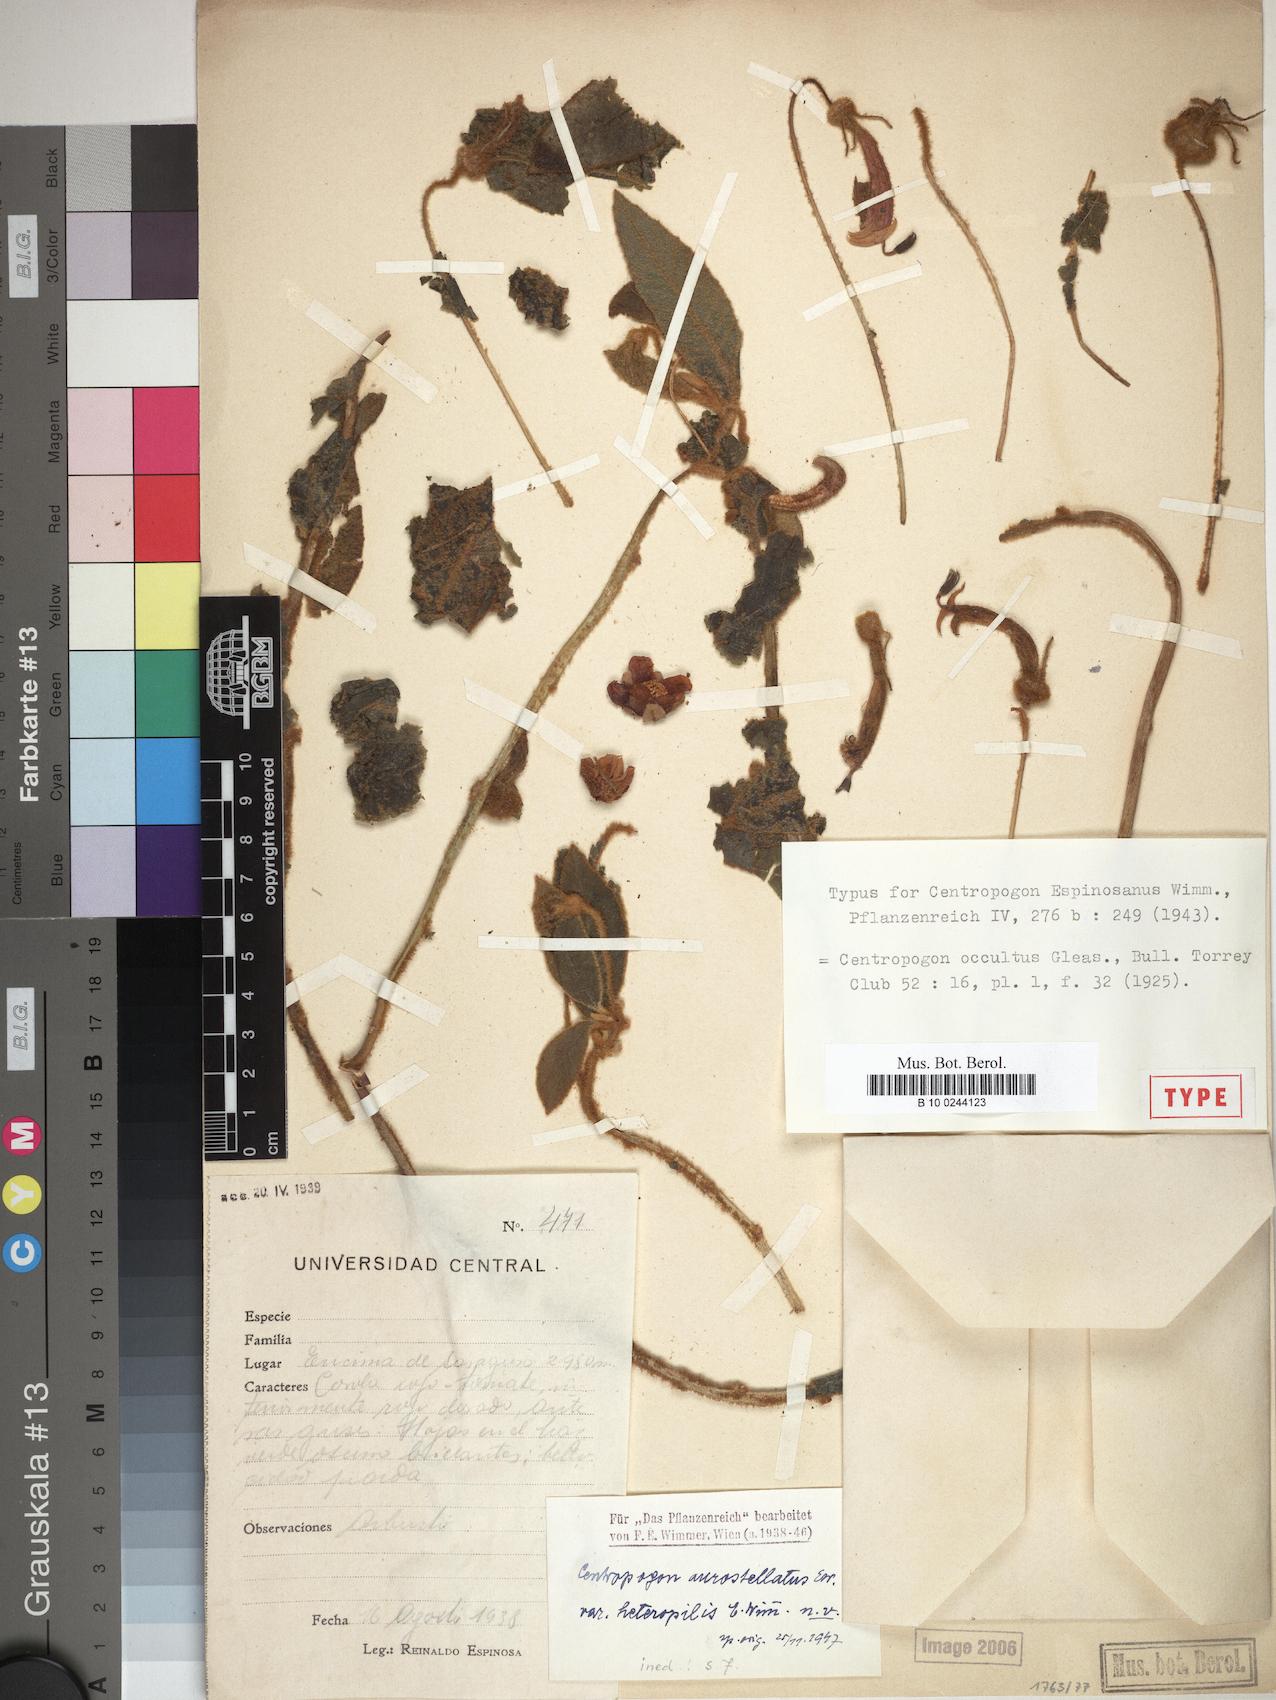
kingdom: Plantae
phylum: Tracheophyta
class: Magnoliopsida
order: Asterales
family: Campanulaceae
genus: Centropogon
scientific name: Centropogon occultus
